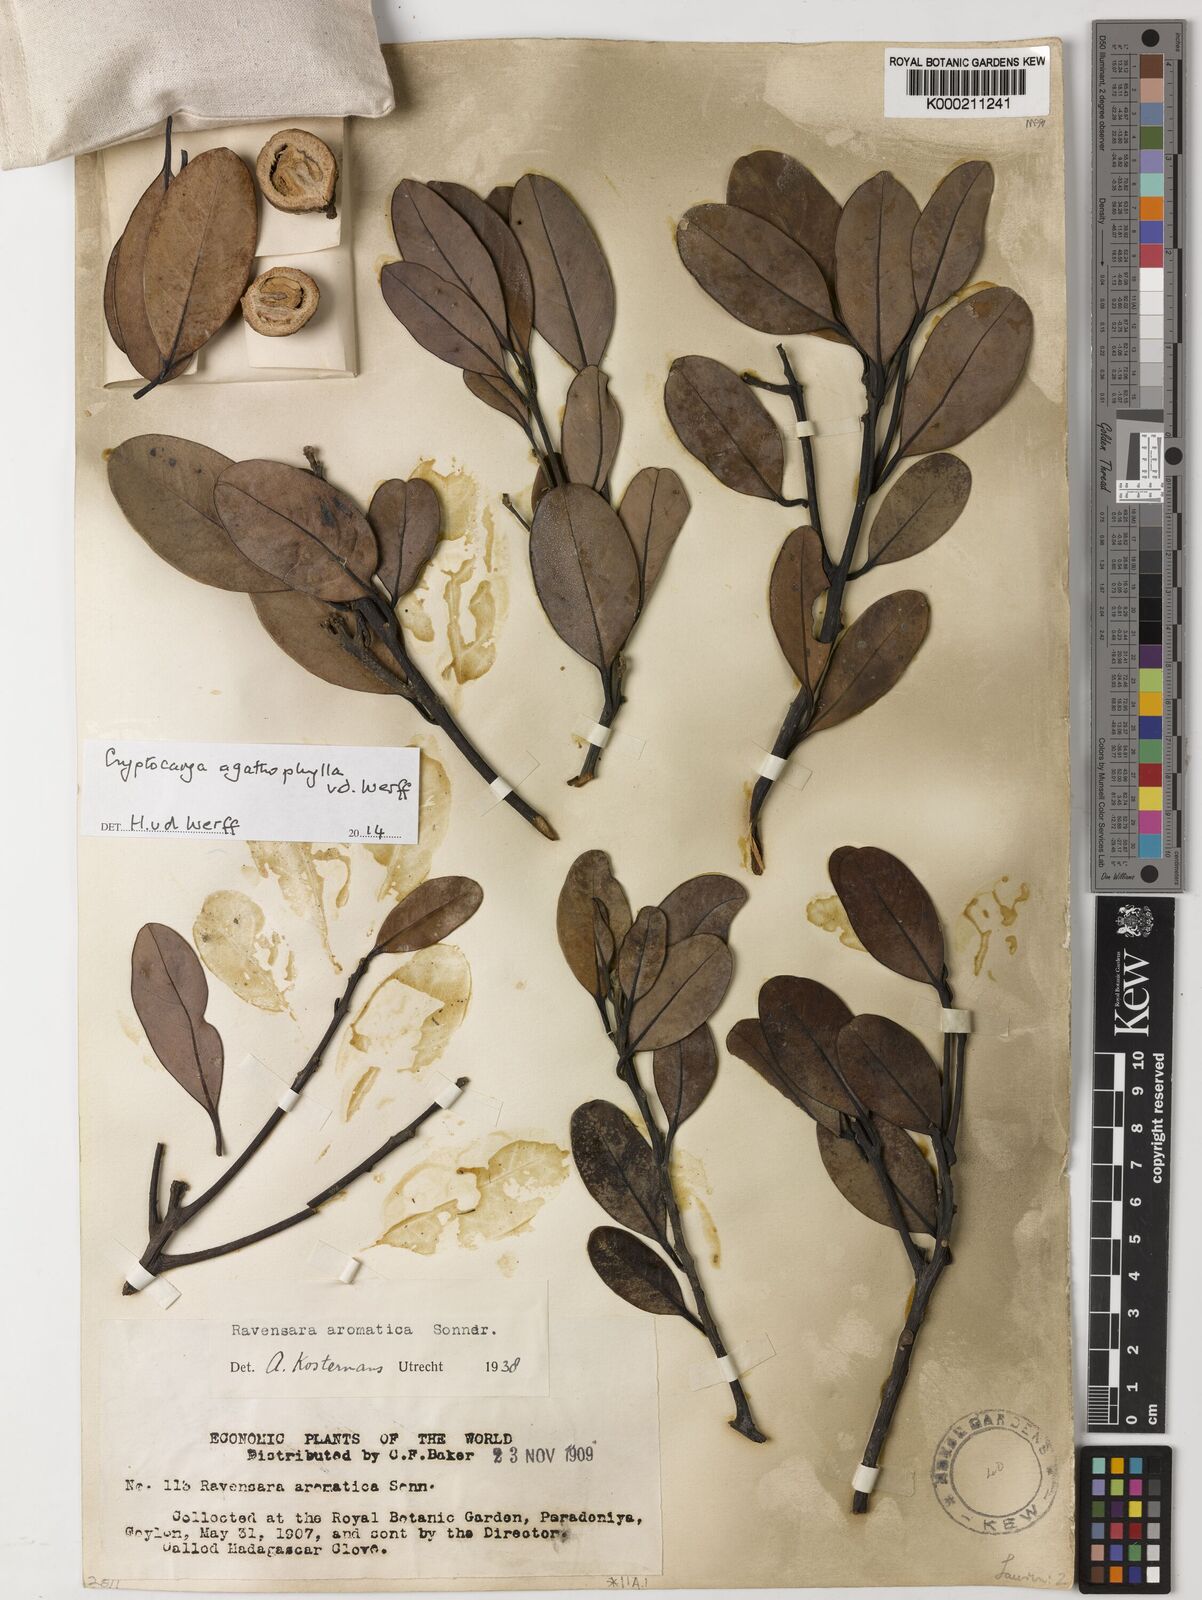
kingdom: Plantae
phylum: Tracheophyta
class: Magnoliopsida
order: Laurales
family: Lauraceae
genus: Cryptocarya
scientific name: Cryptocarya agathophylla
